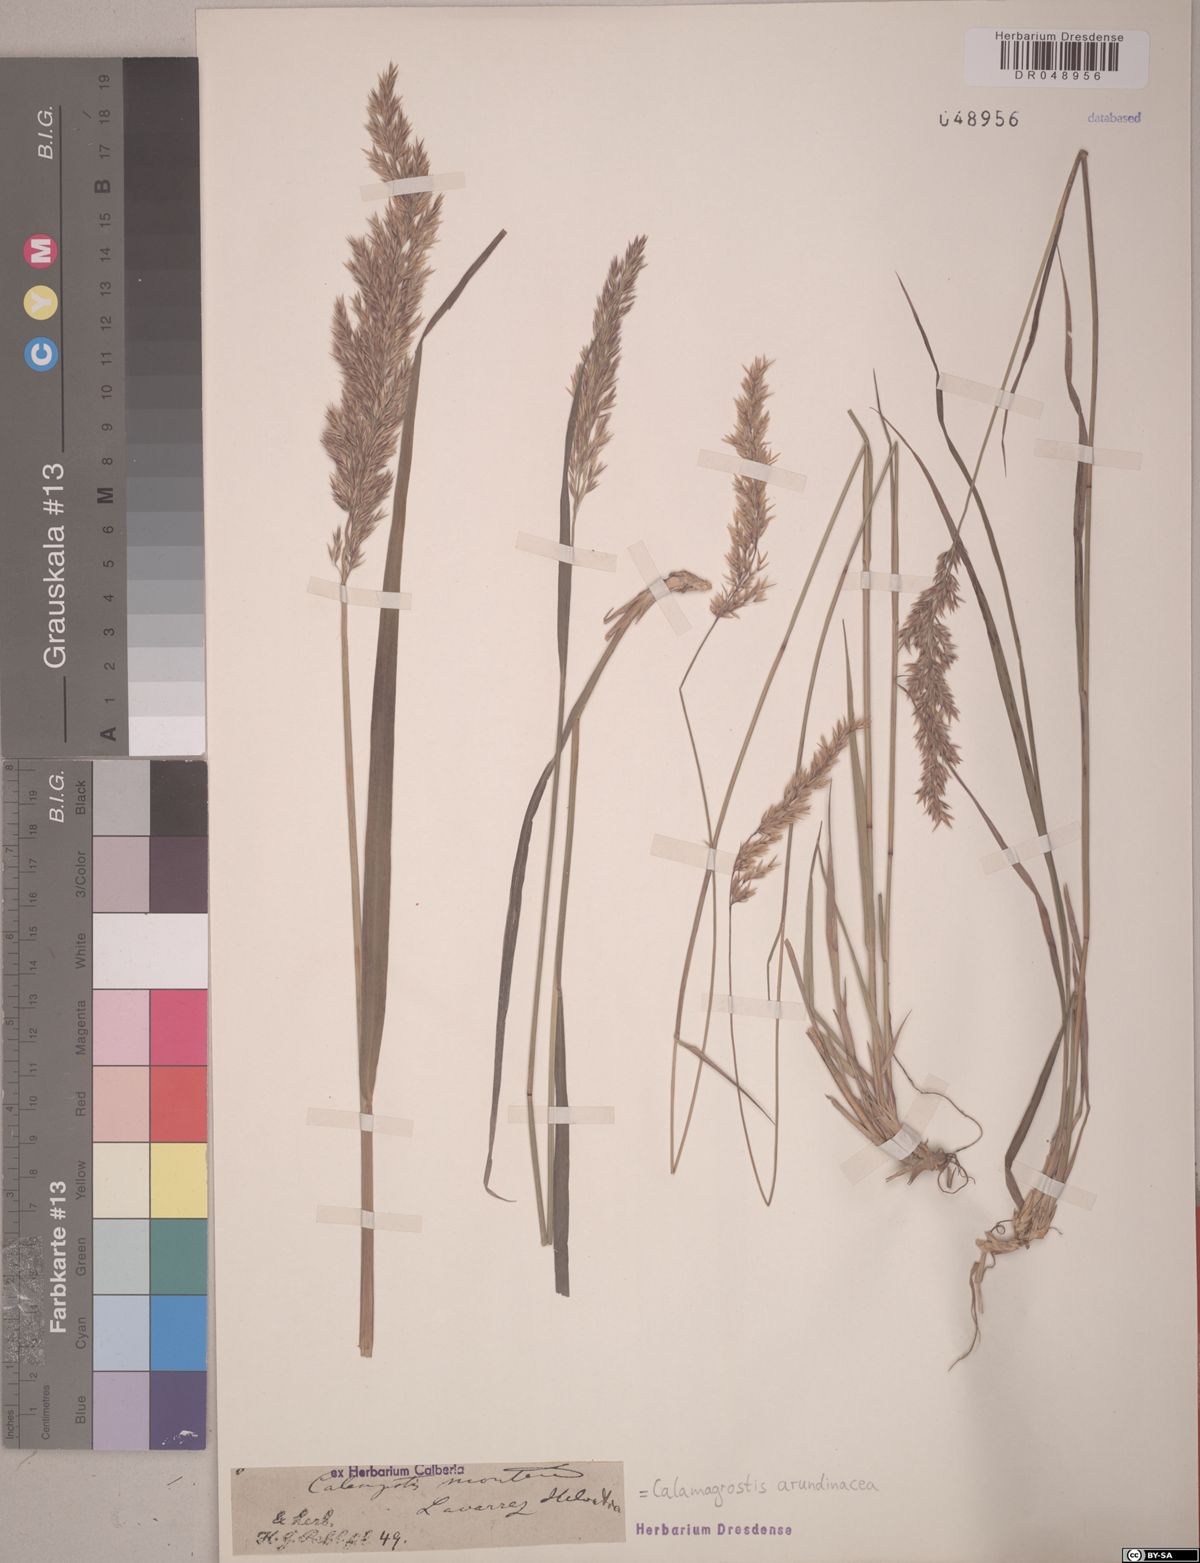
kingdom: Plantae
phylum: Tracheophyta
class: Liliopsida
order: Poales
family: Poaceae
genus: Calamagrostis
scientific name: Calamagrostis arundinacea
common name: Metskastik
